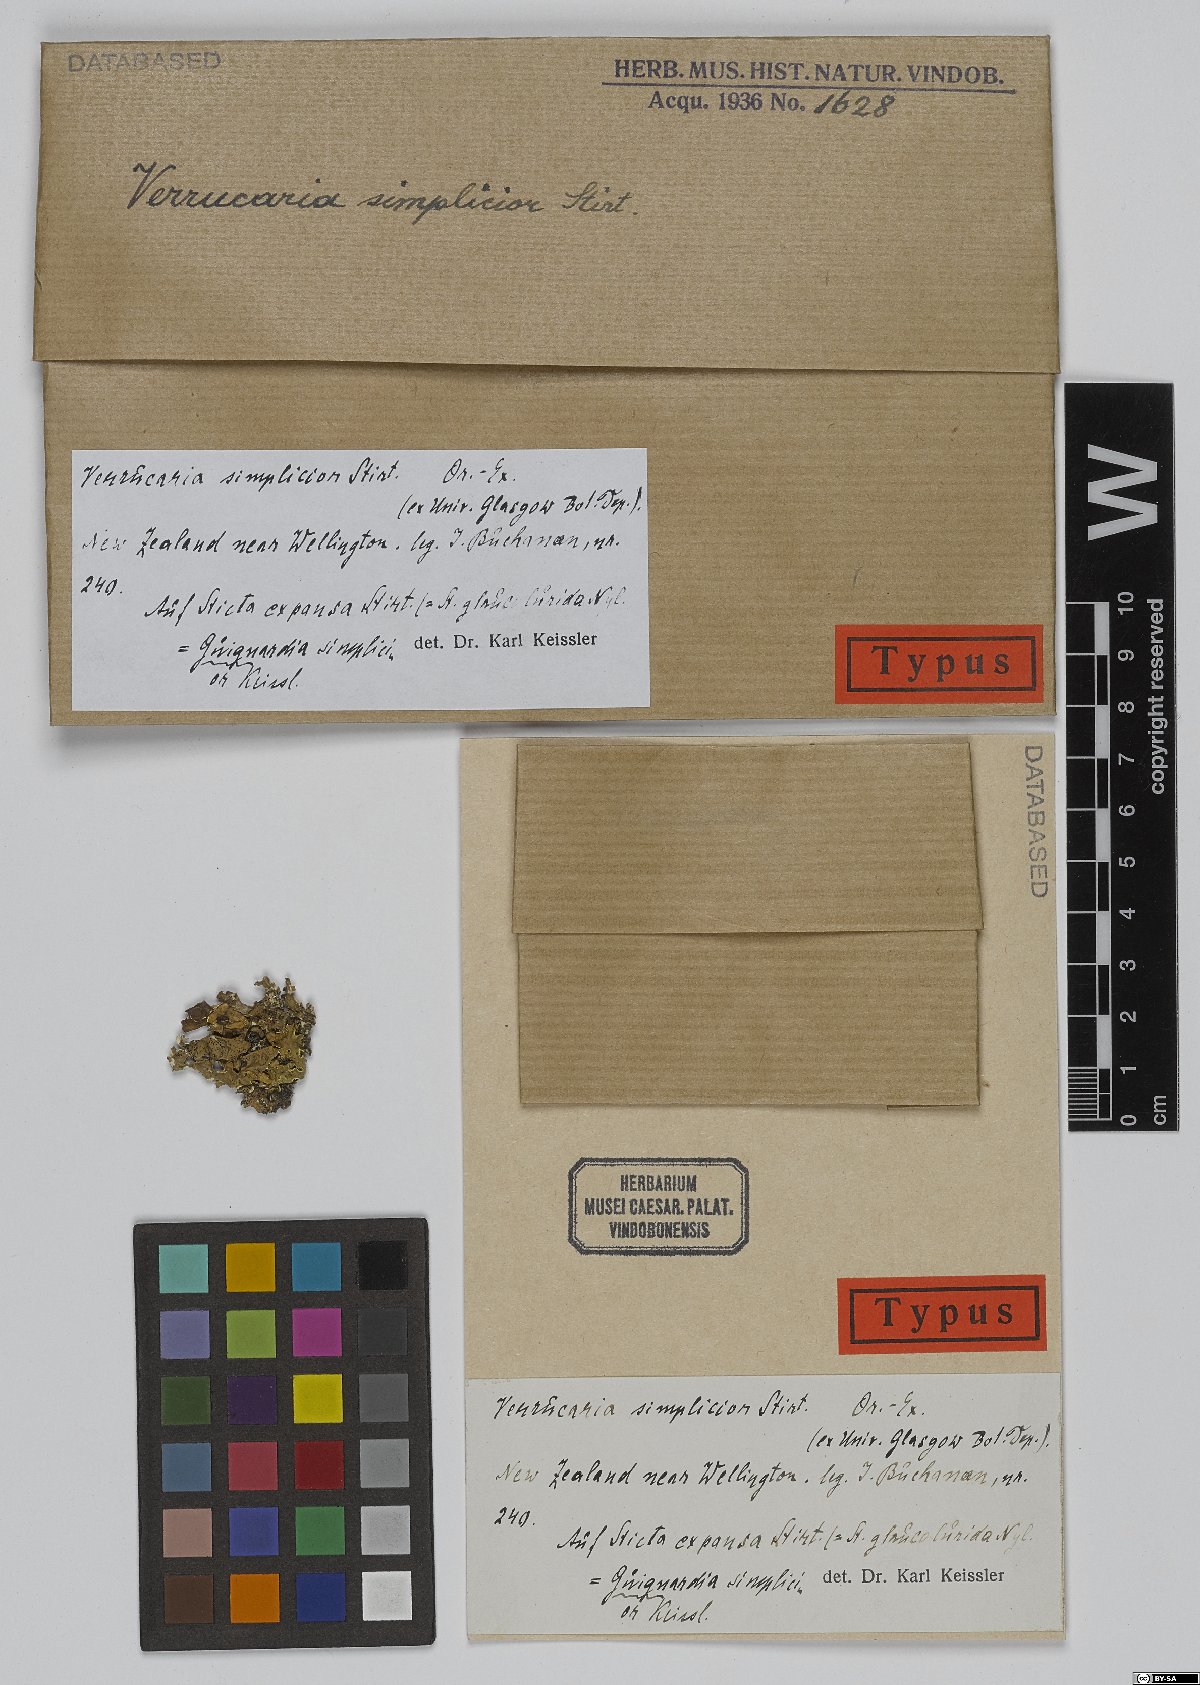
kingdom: Fungi
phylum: Ascomycota
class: Eurotiomycetes
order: Verrucariales
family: Verrucariaceae
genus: Verrucaria
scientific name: Verrucaria
